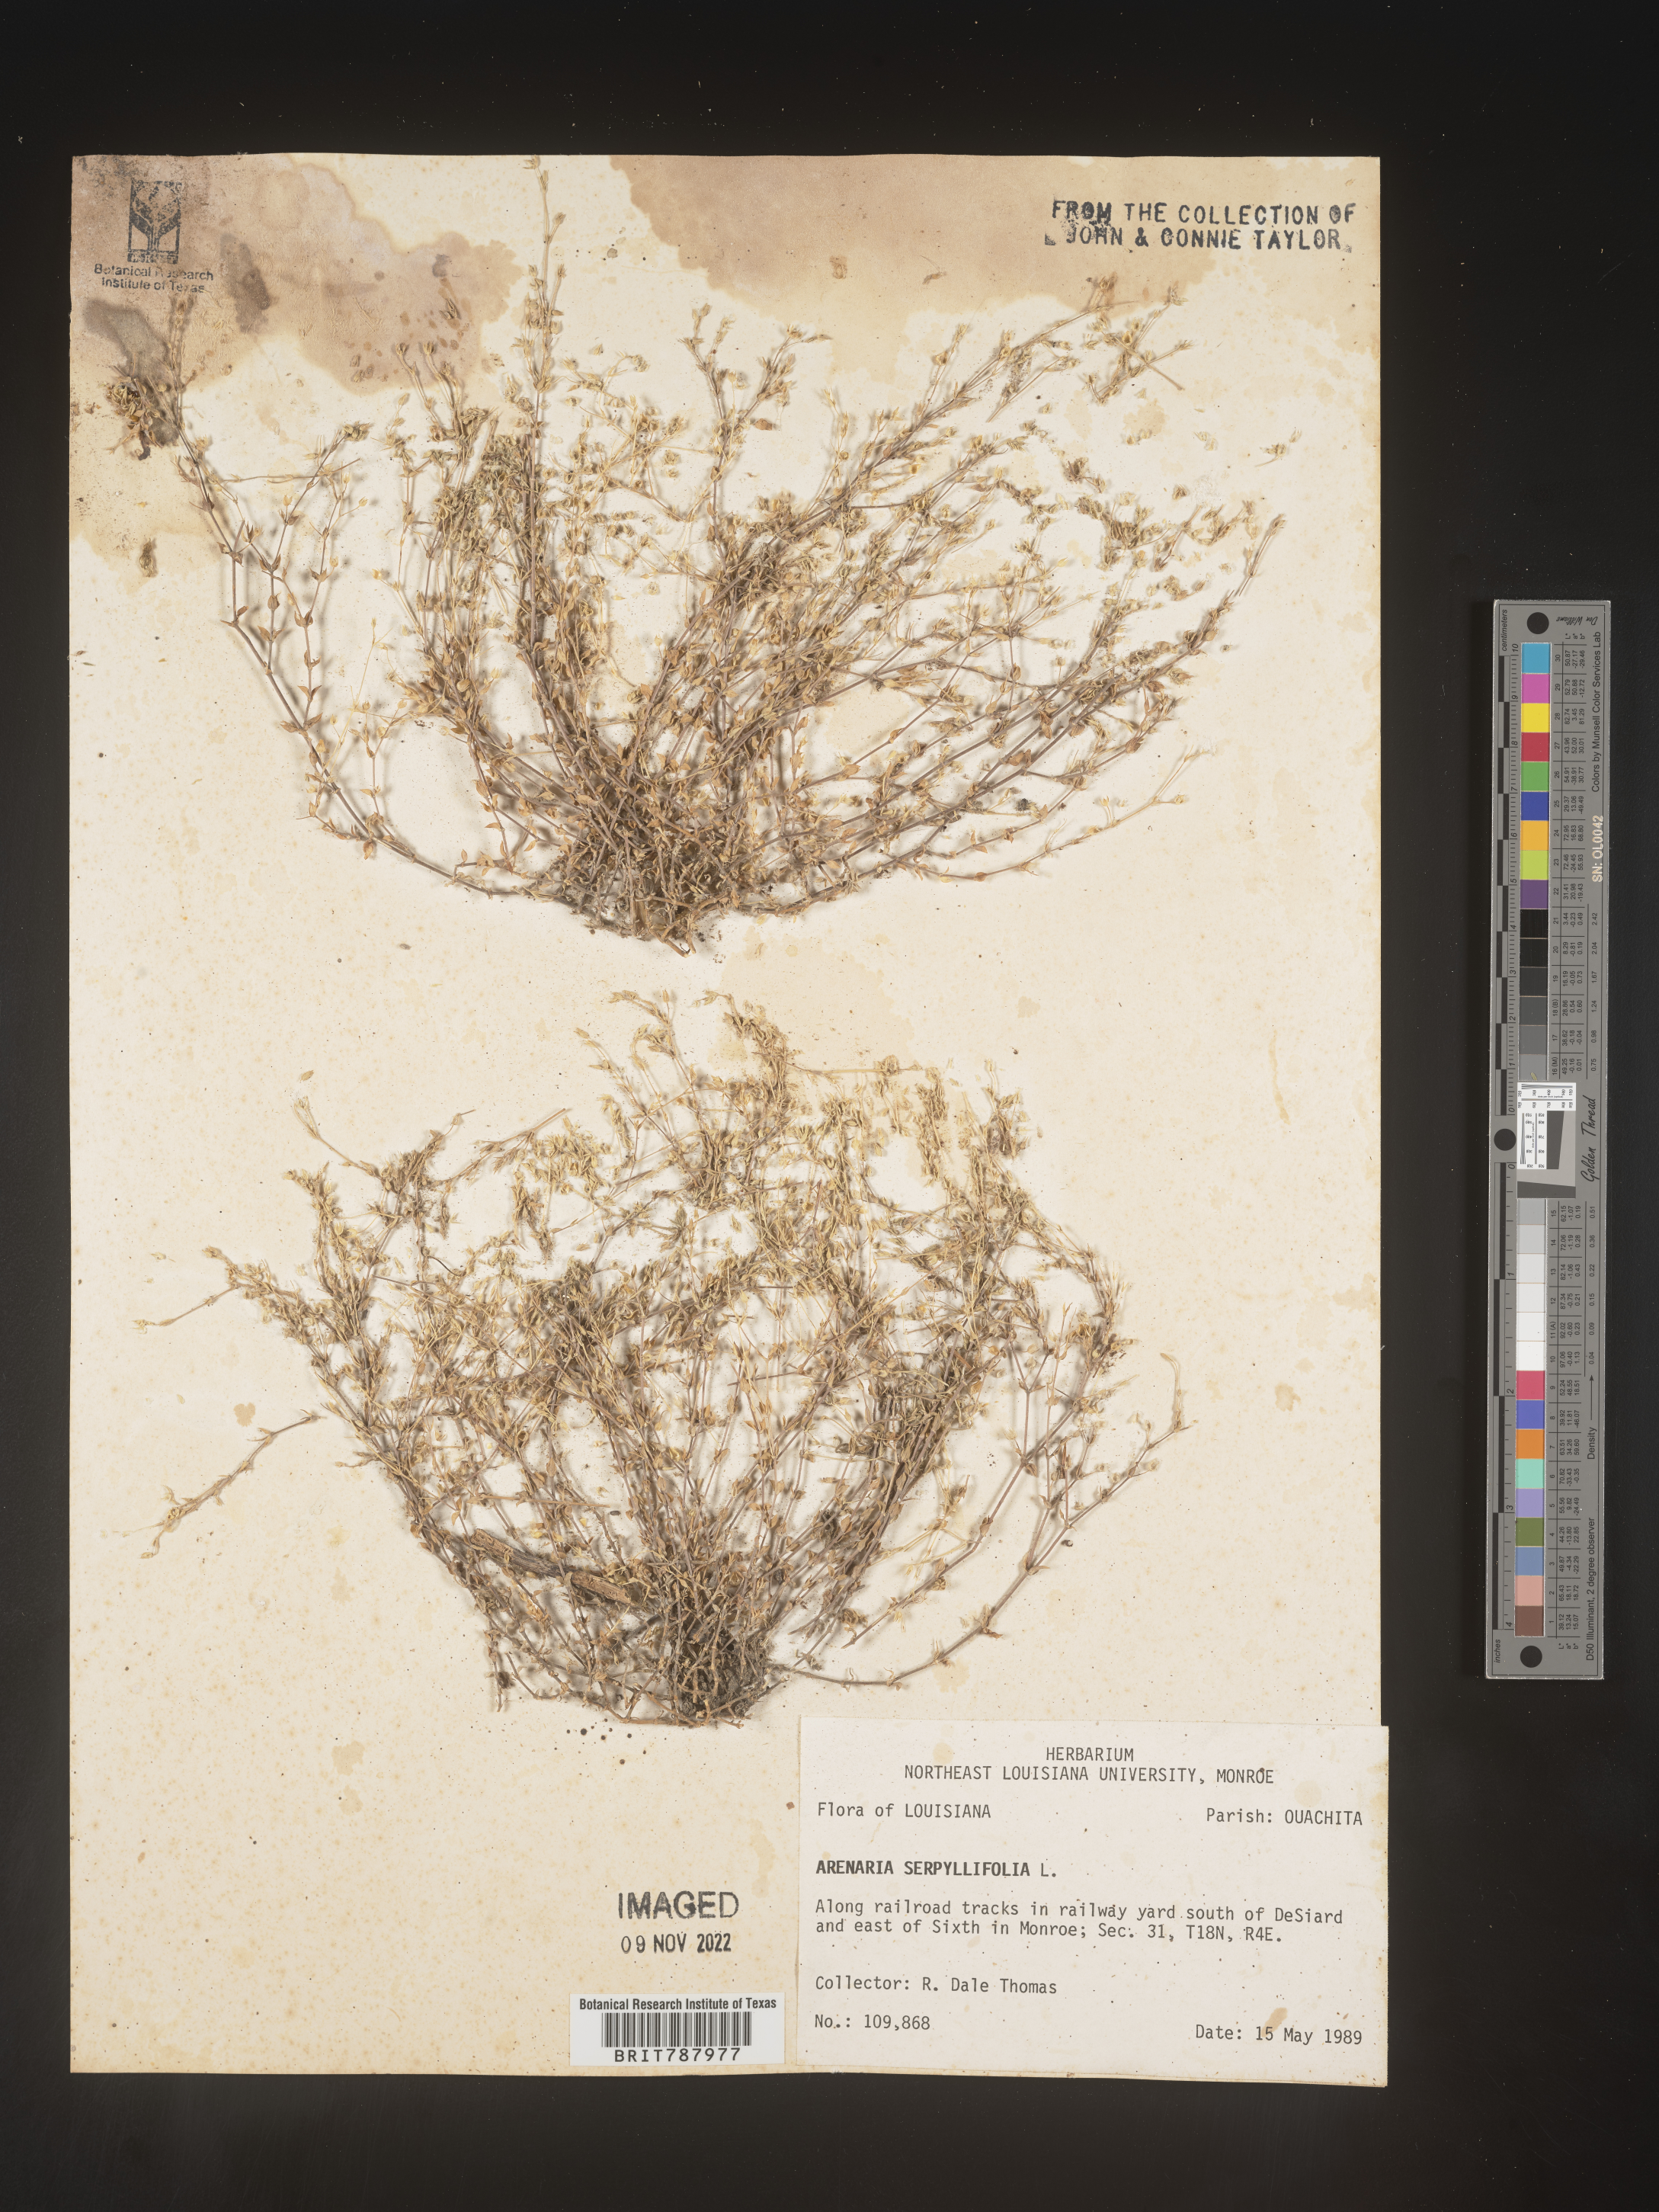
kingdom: Plantae
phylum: Tracheophyta
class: Magnoliopsida
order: Caryophyllales
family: Caryophyllaceae
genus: Arenaria
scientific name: Arenaria serpyllifolia
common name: Thyme-leaved sandwort
